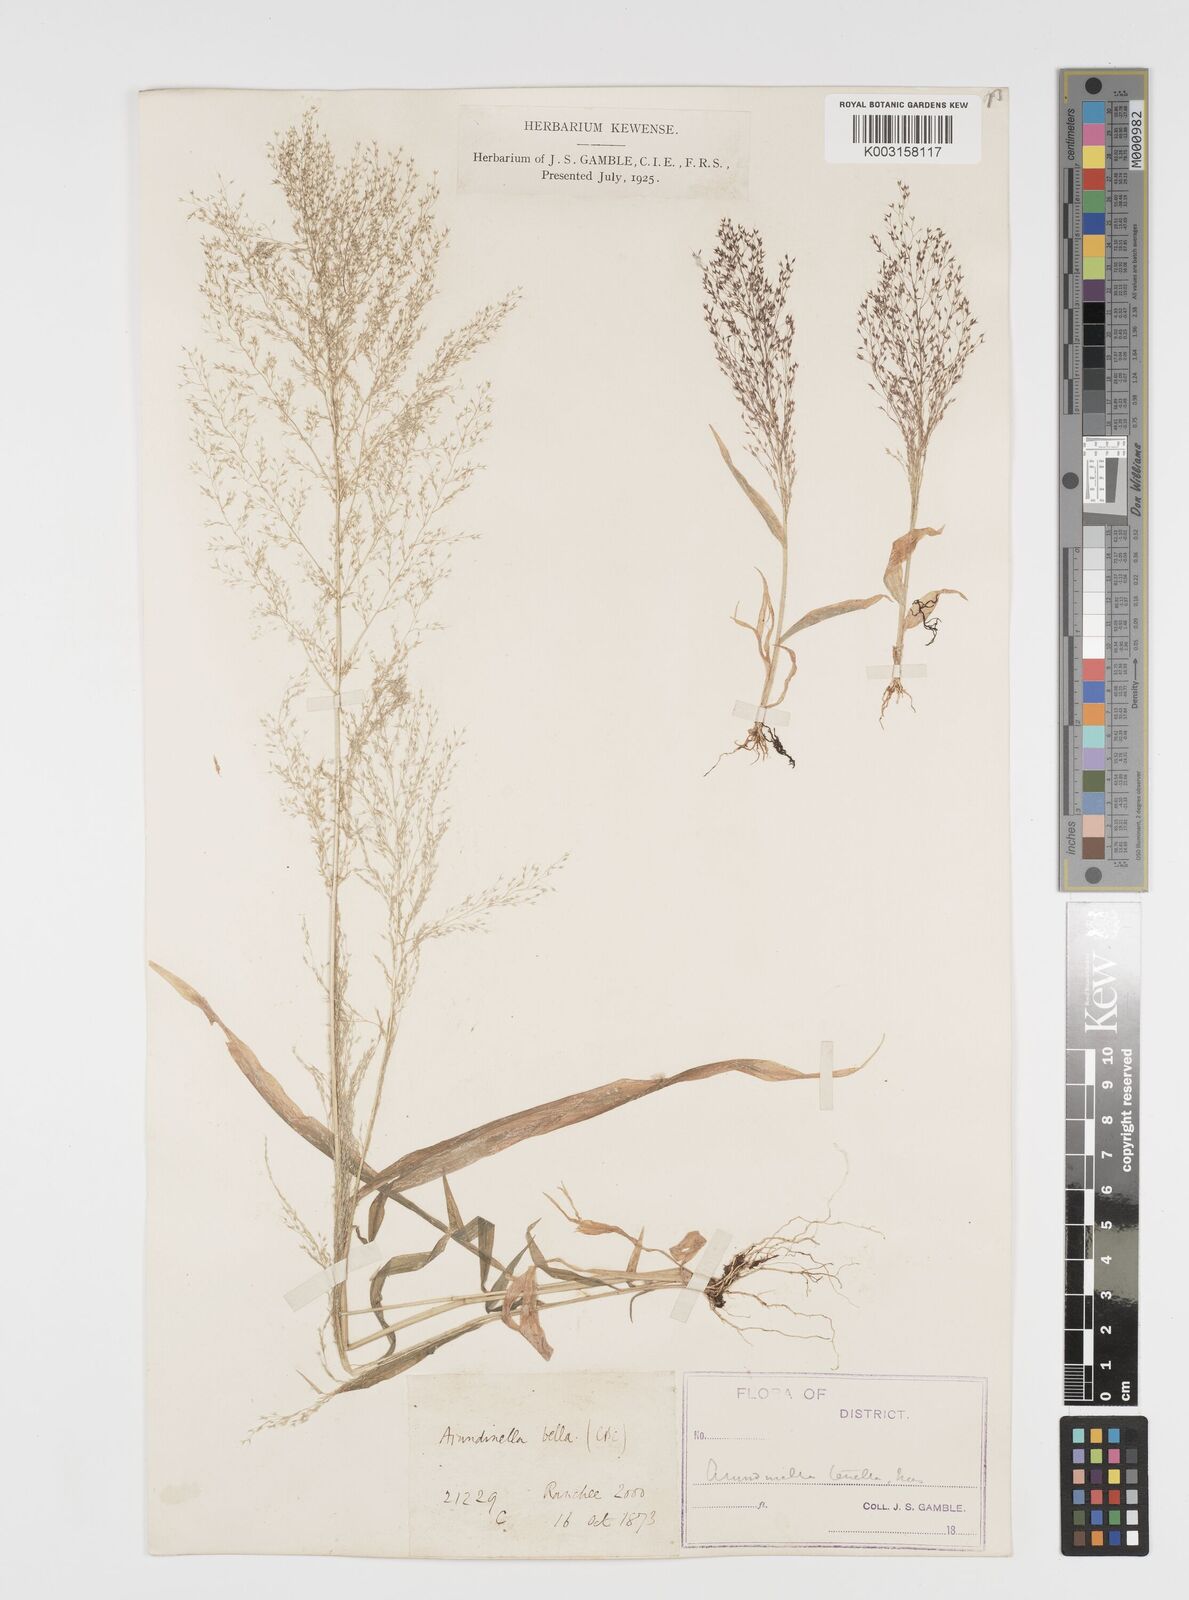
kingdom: Plantae
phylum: Tracheophyta
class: Liliopsida
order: Poales
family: Poaceae
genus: Arundinella
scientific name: Arundinella pumila
